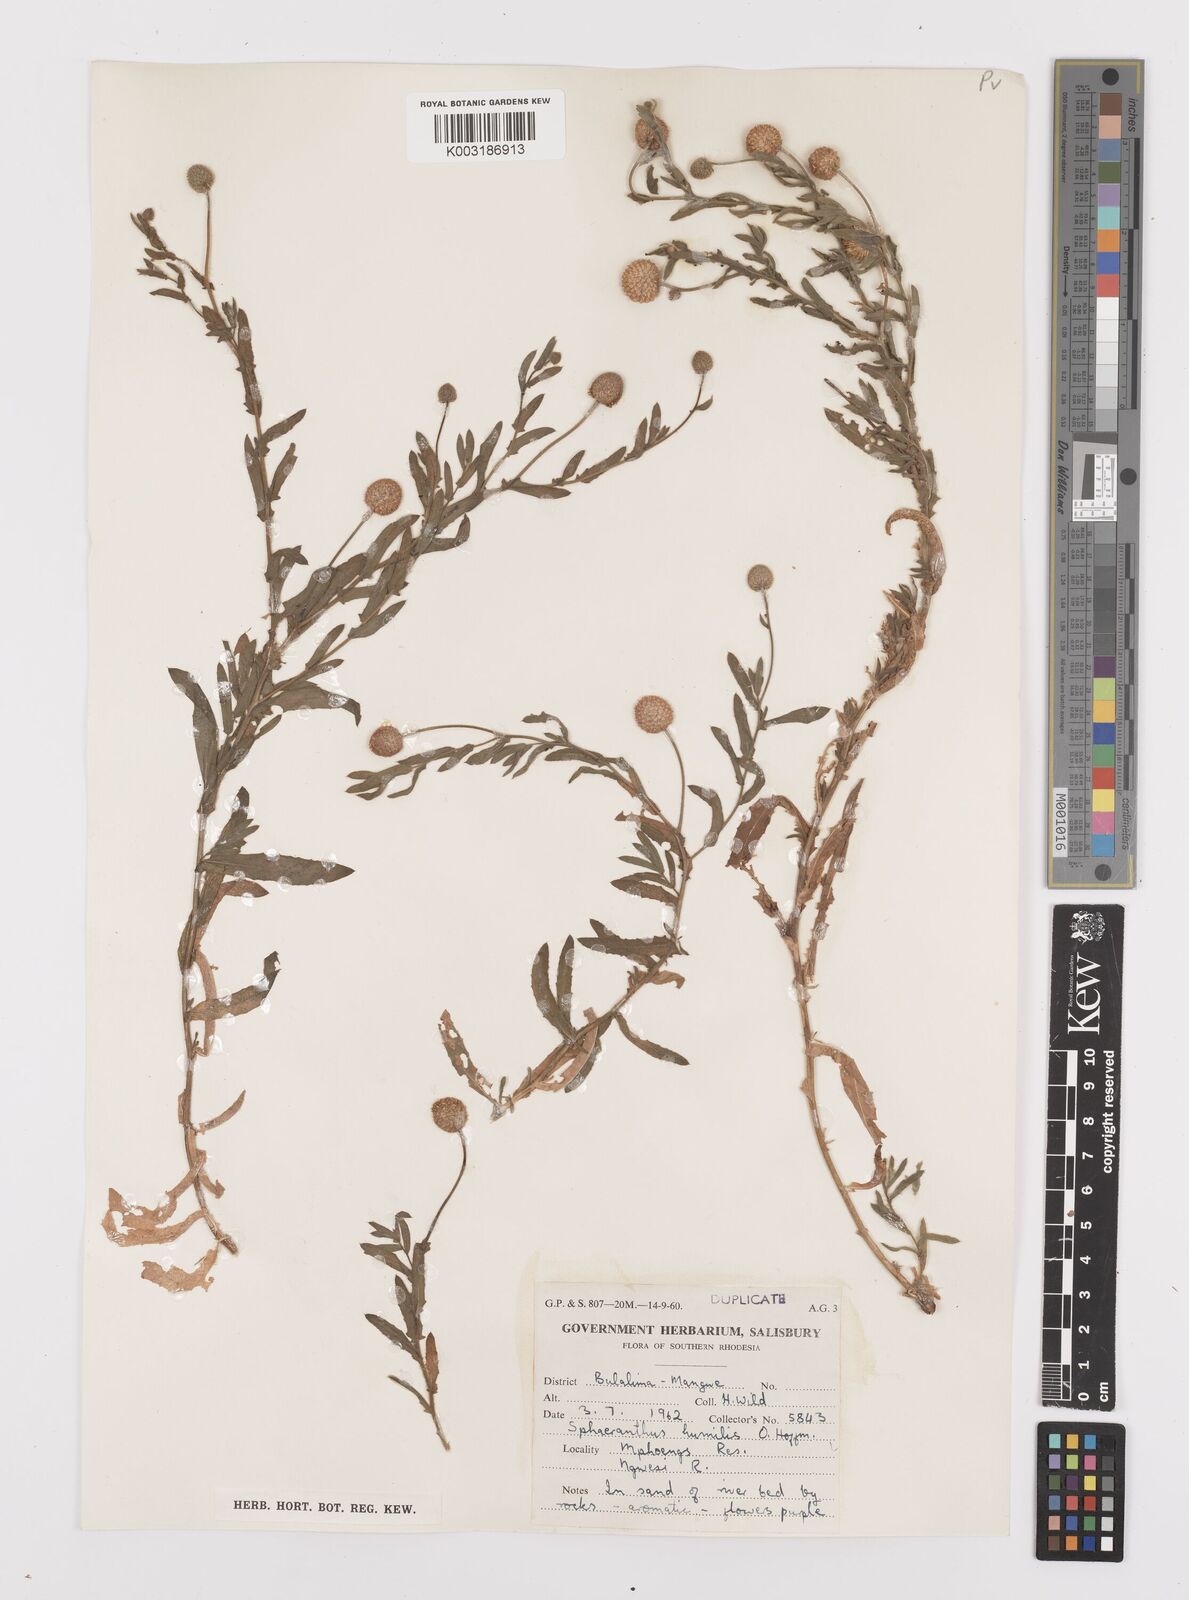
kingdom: Plantae
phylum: Tracheophyta
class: Magnoliopsida
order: Asterales
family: Asteraceae
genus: Sphaeranthus
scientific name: Sphaeranthus flexuosus
